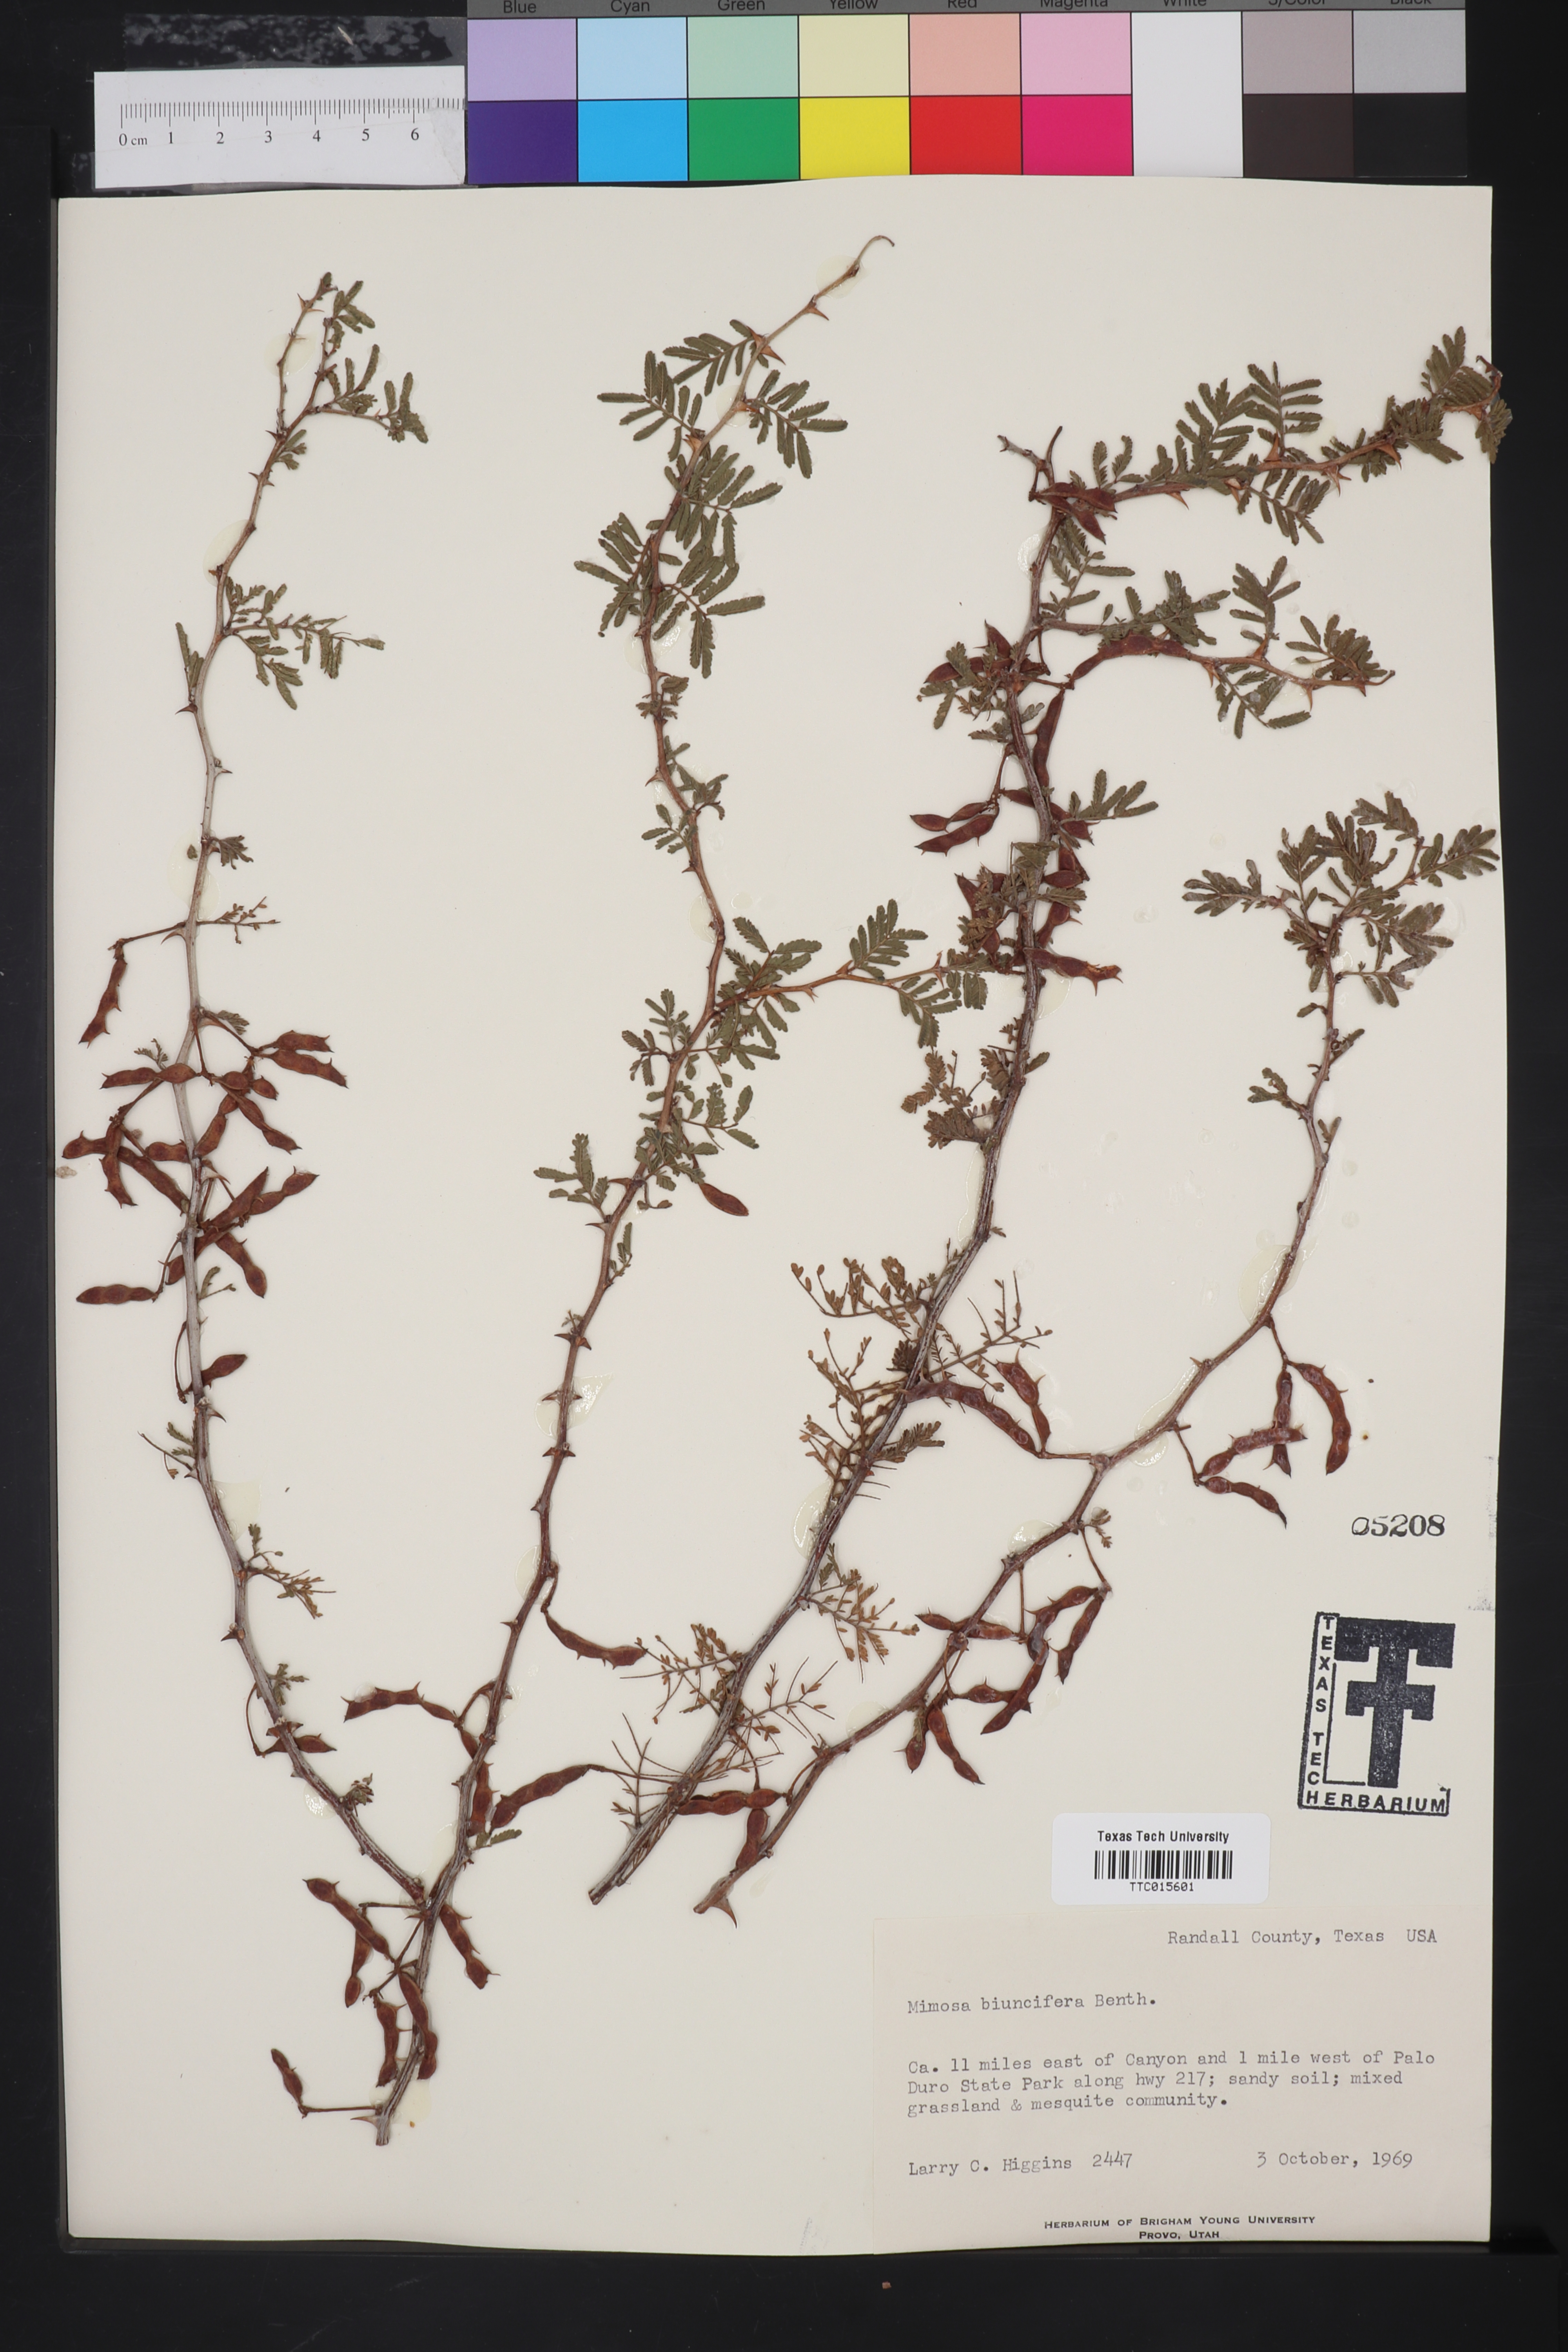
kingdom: Plantae
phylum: Tracheophyta
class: Magnoliopsida
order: Fabales
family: Fabaceae
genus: Mimosa
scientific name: Mimosa biuncifera
